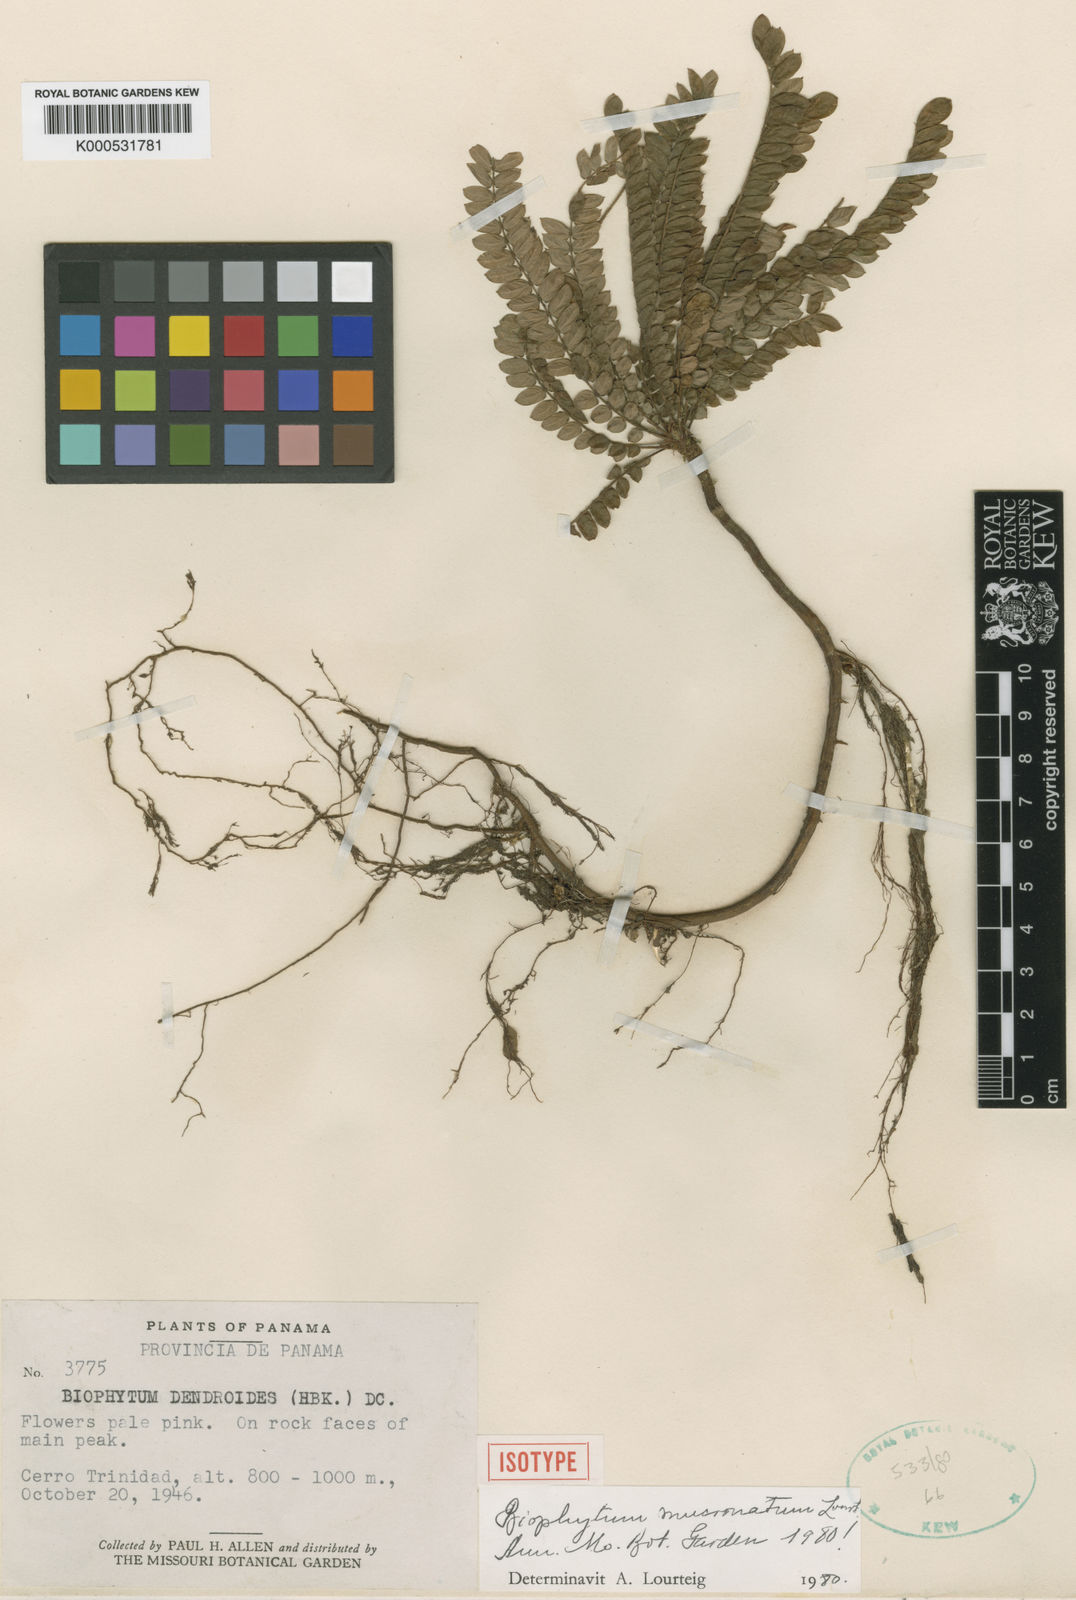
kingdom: Plantae
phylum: Tracheophyta
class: Magnoliopsida
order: Oxalidales
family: Oxalidaceae
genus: Biophytum
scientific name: Biophytum mucronatum
